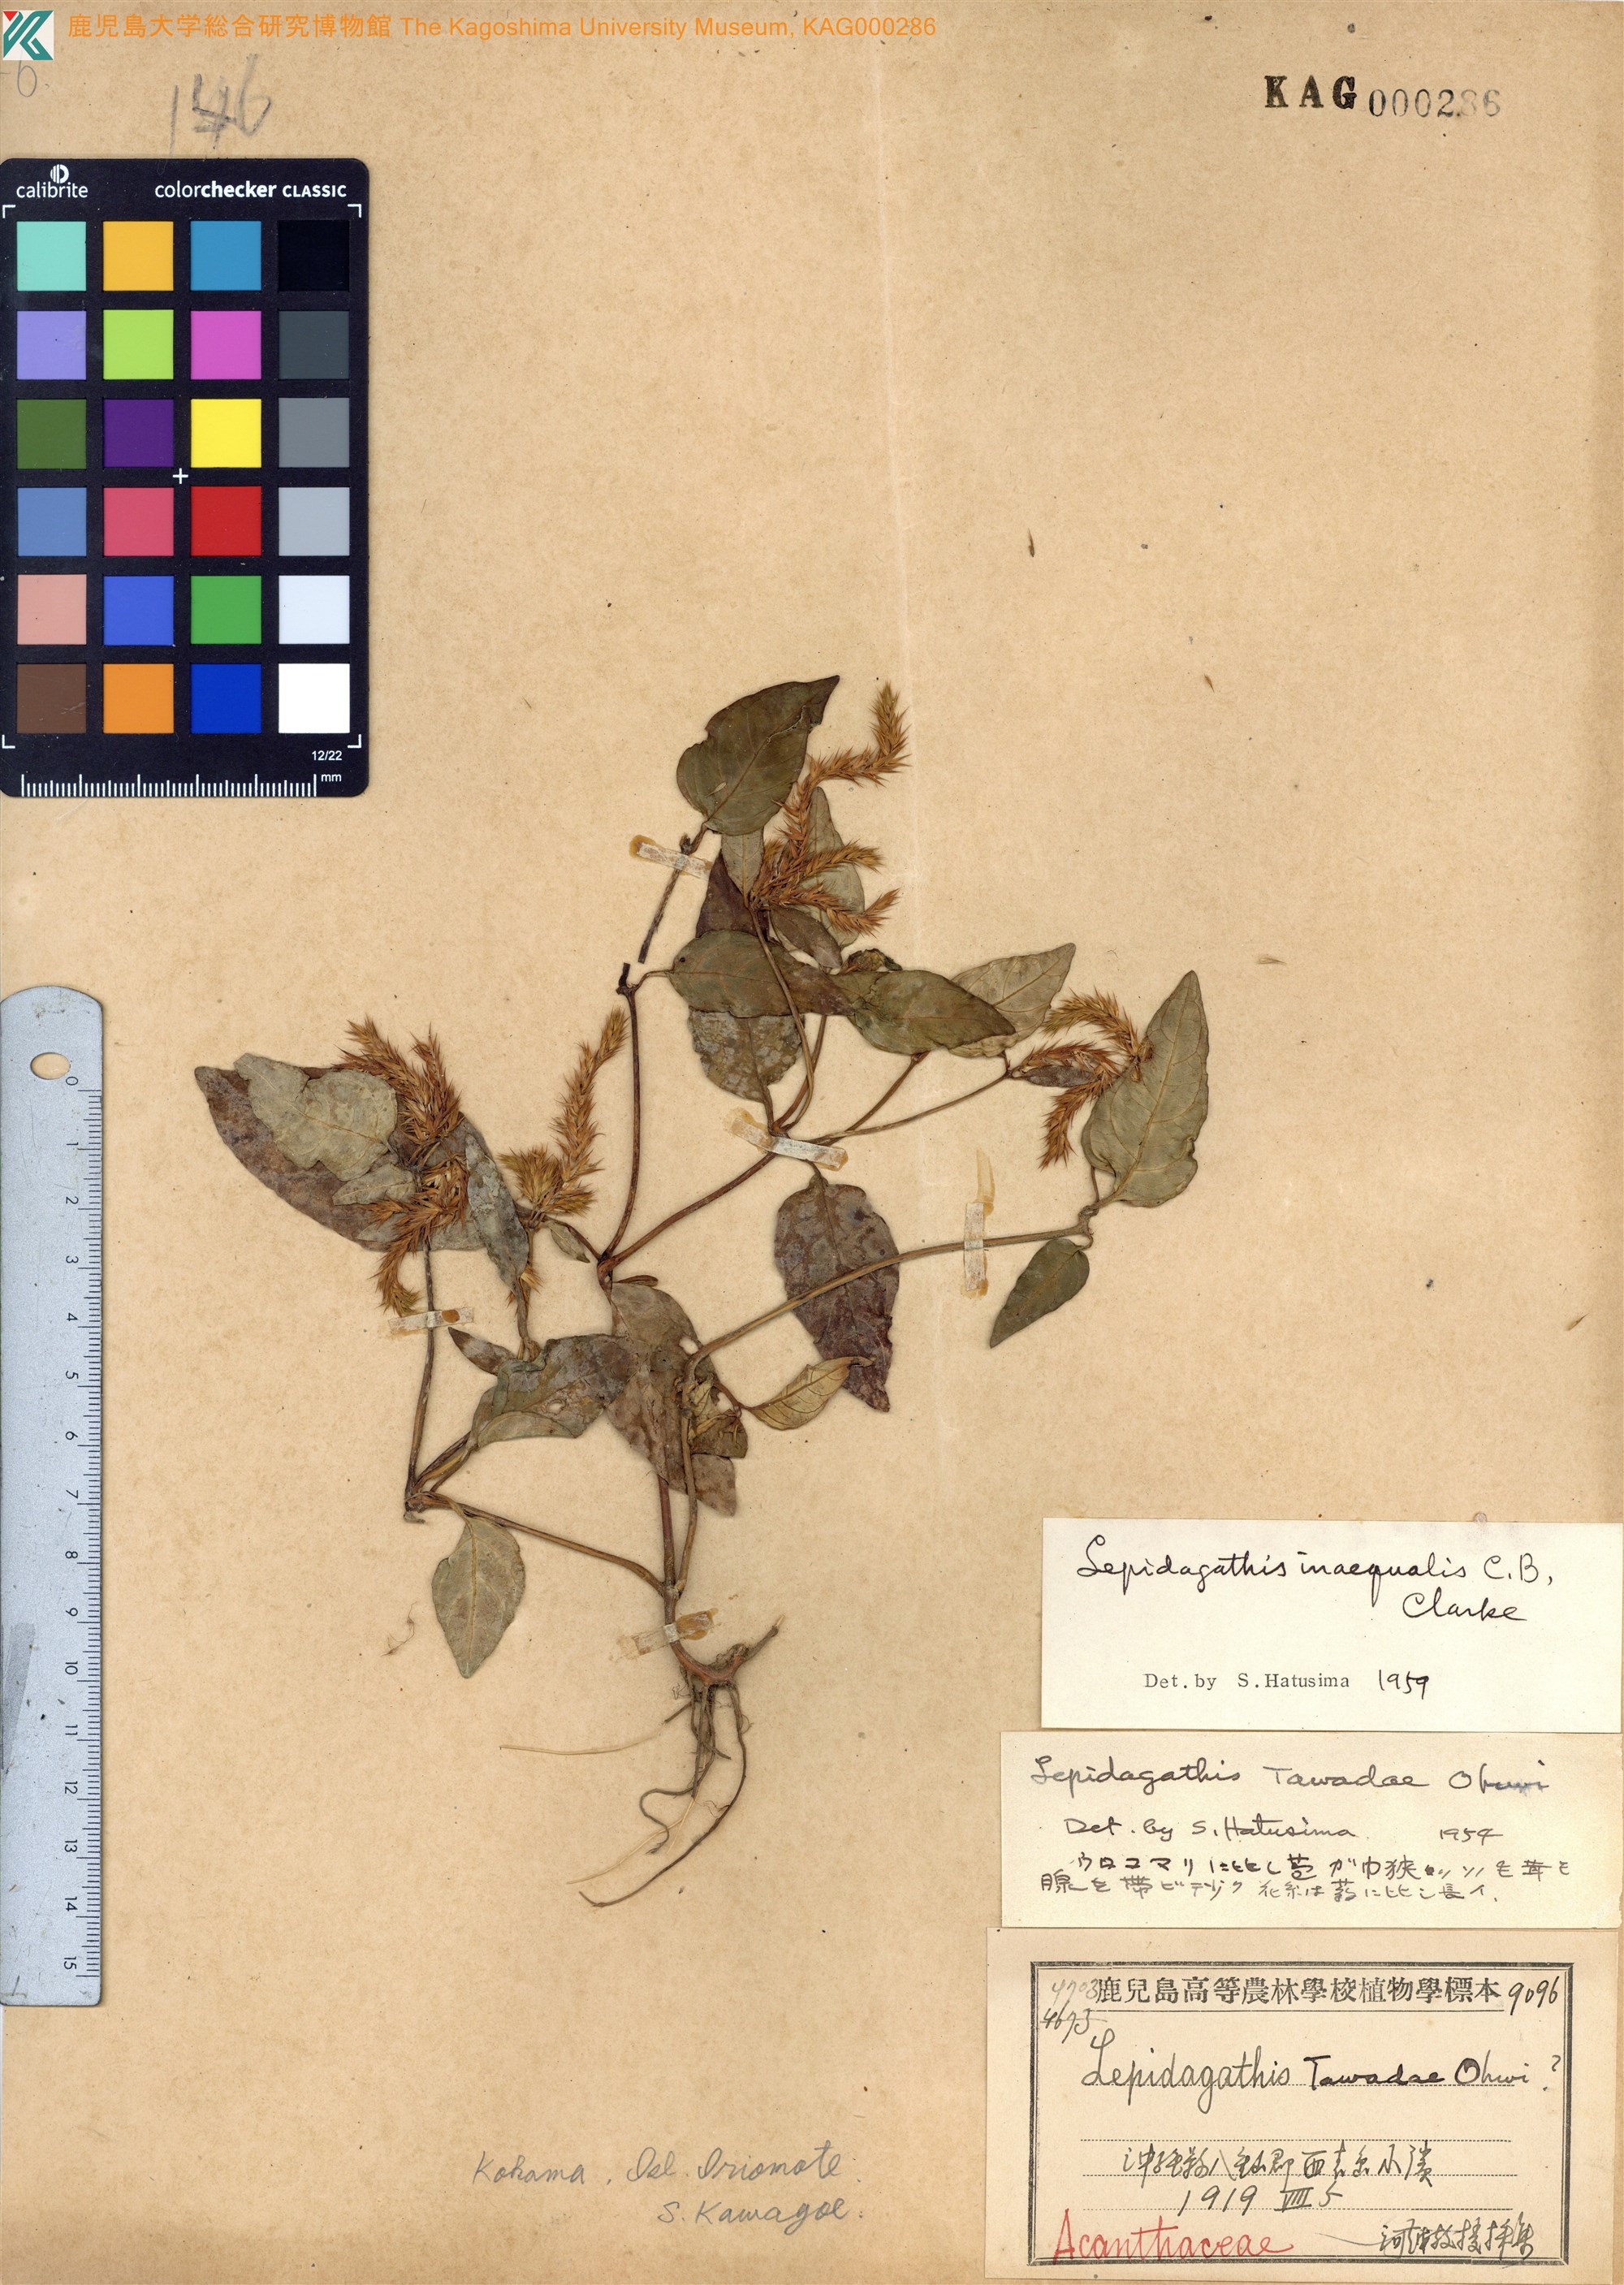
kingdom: Plantae
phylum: Tracheophyta
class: Magnoliopsida
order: Lamiales
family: Acanthaceae
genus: Lepidagathis
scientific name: Lepidagathis inaequalis
